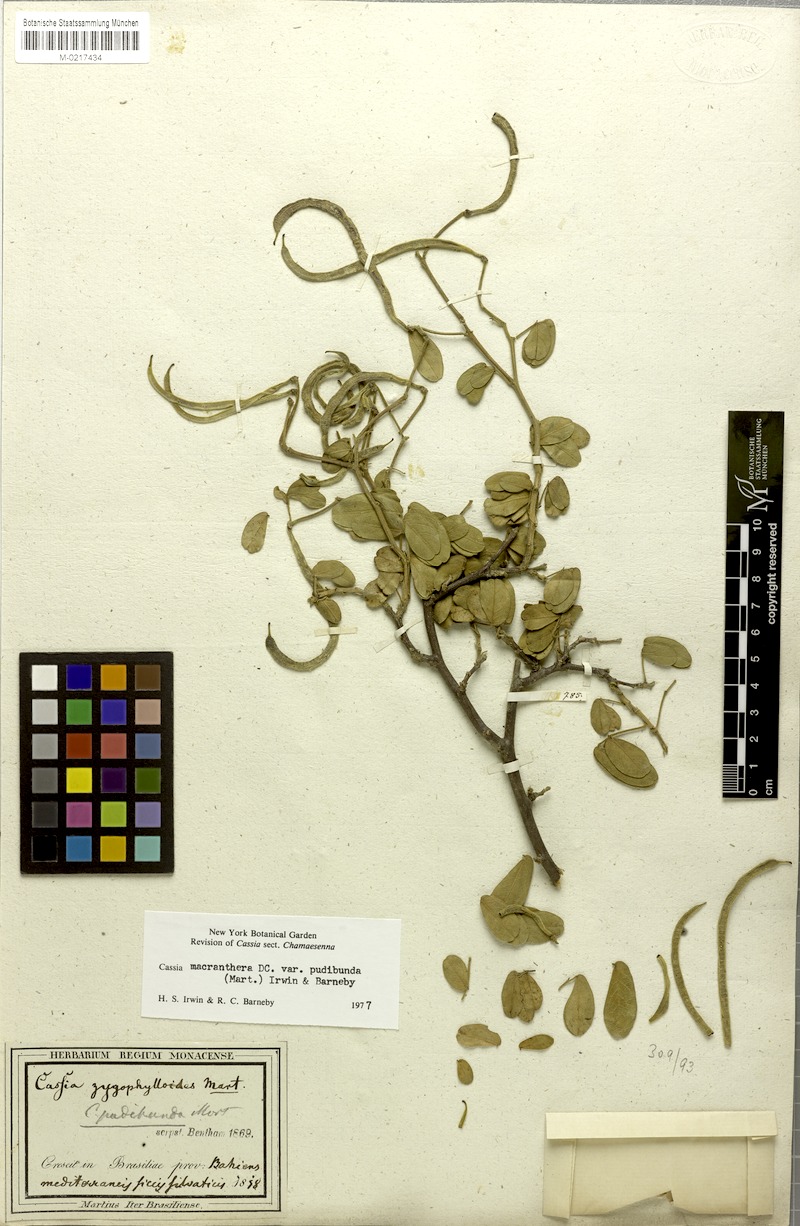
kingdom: Plantae
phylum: Tracheophyta
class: Magnoliopsida
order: Fabales
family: Fabaceae
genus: Senna
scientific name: Senna macranthera
